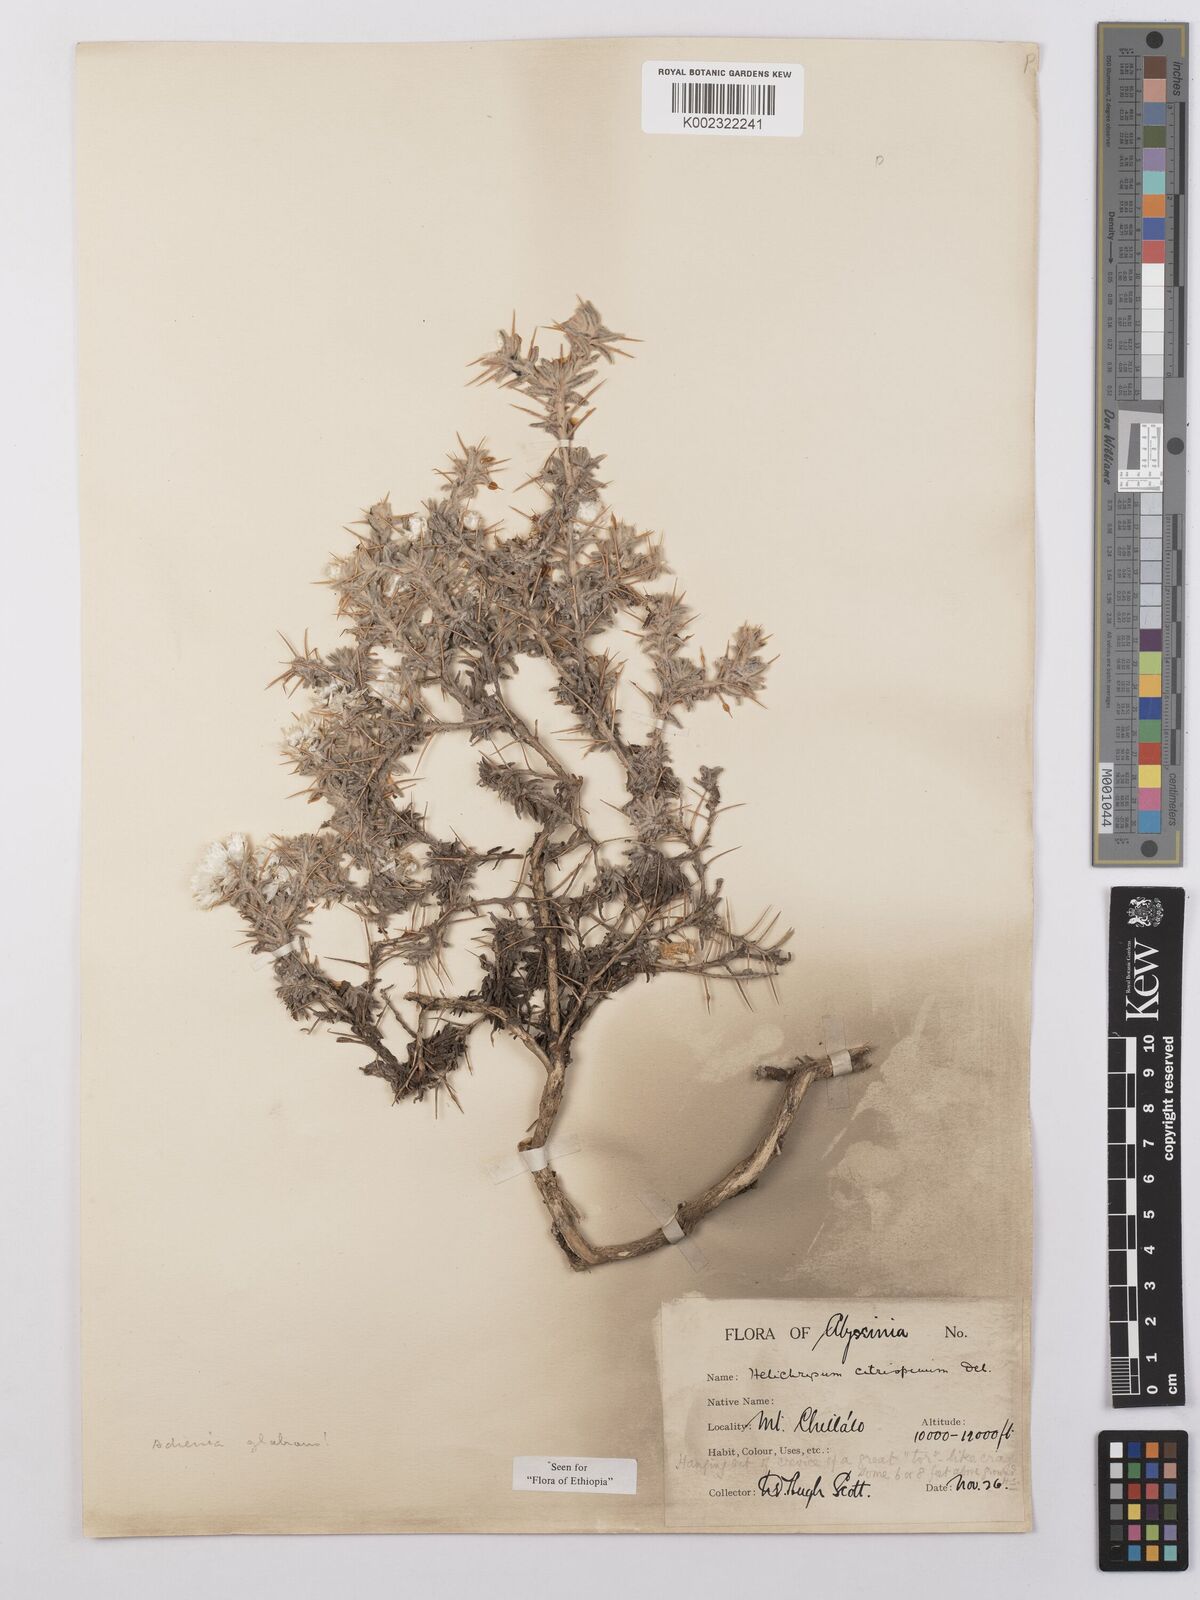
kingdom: Plantae
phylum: Tracheophyta
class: Magnoliopsida
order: Asterales
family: Asteraceae
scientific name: Asteraceae
